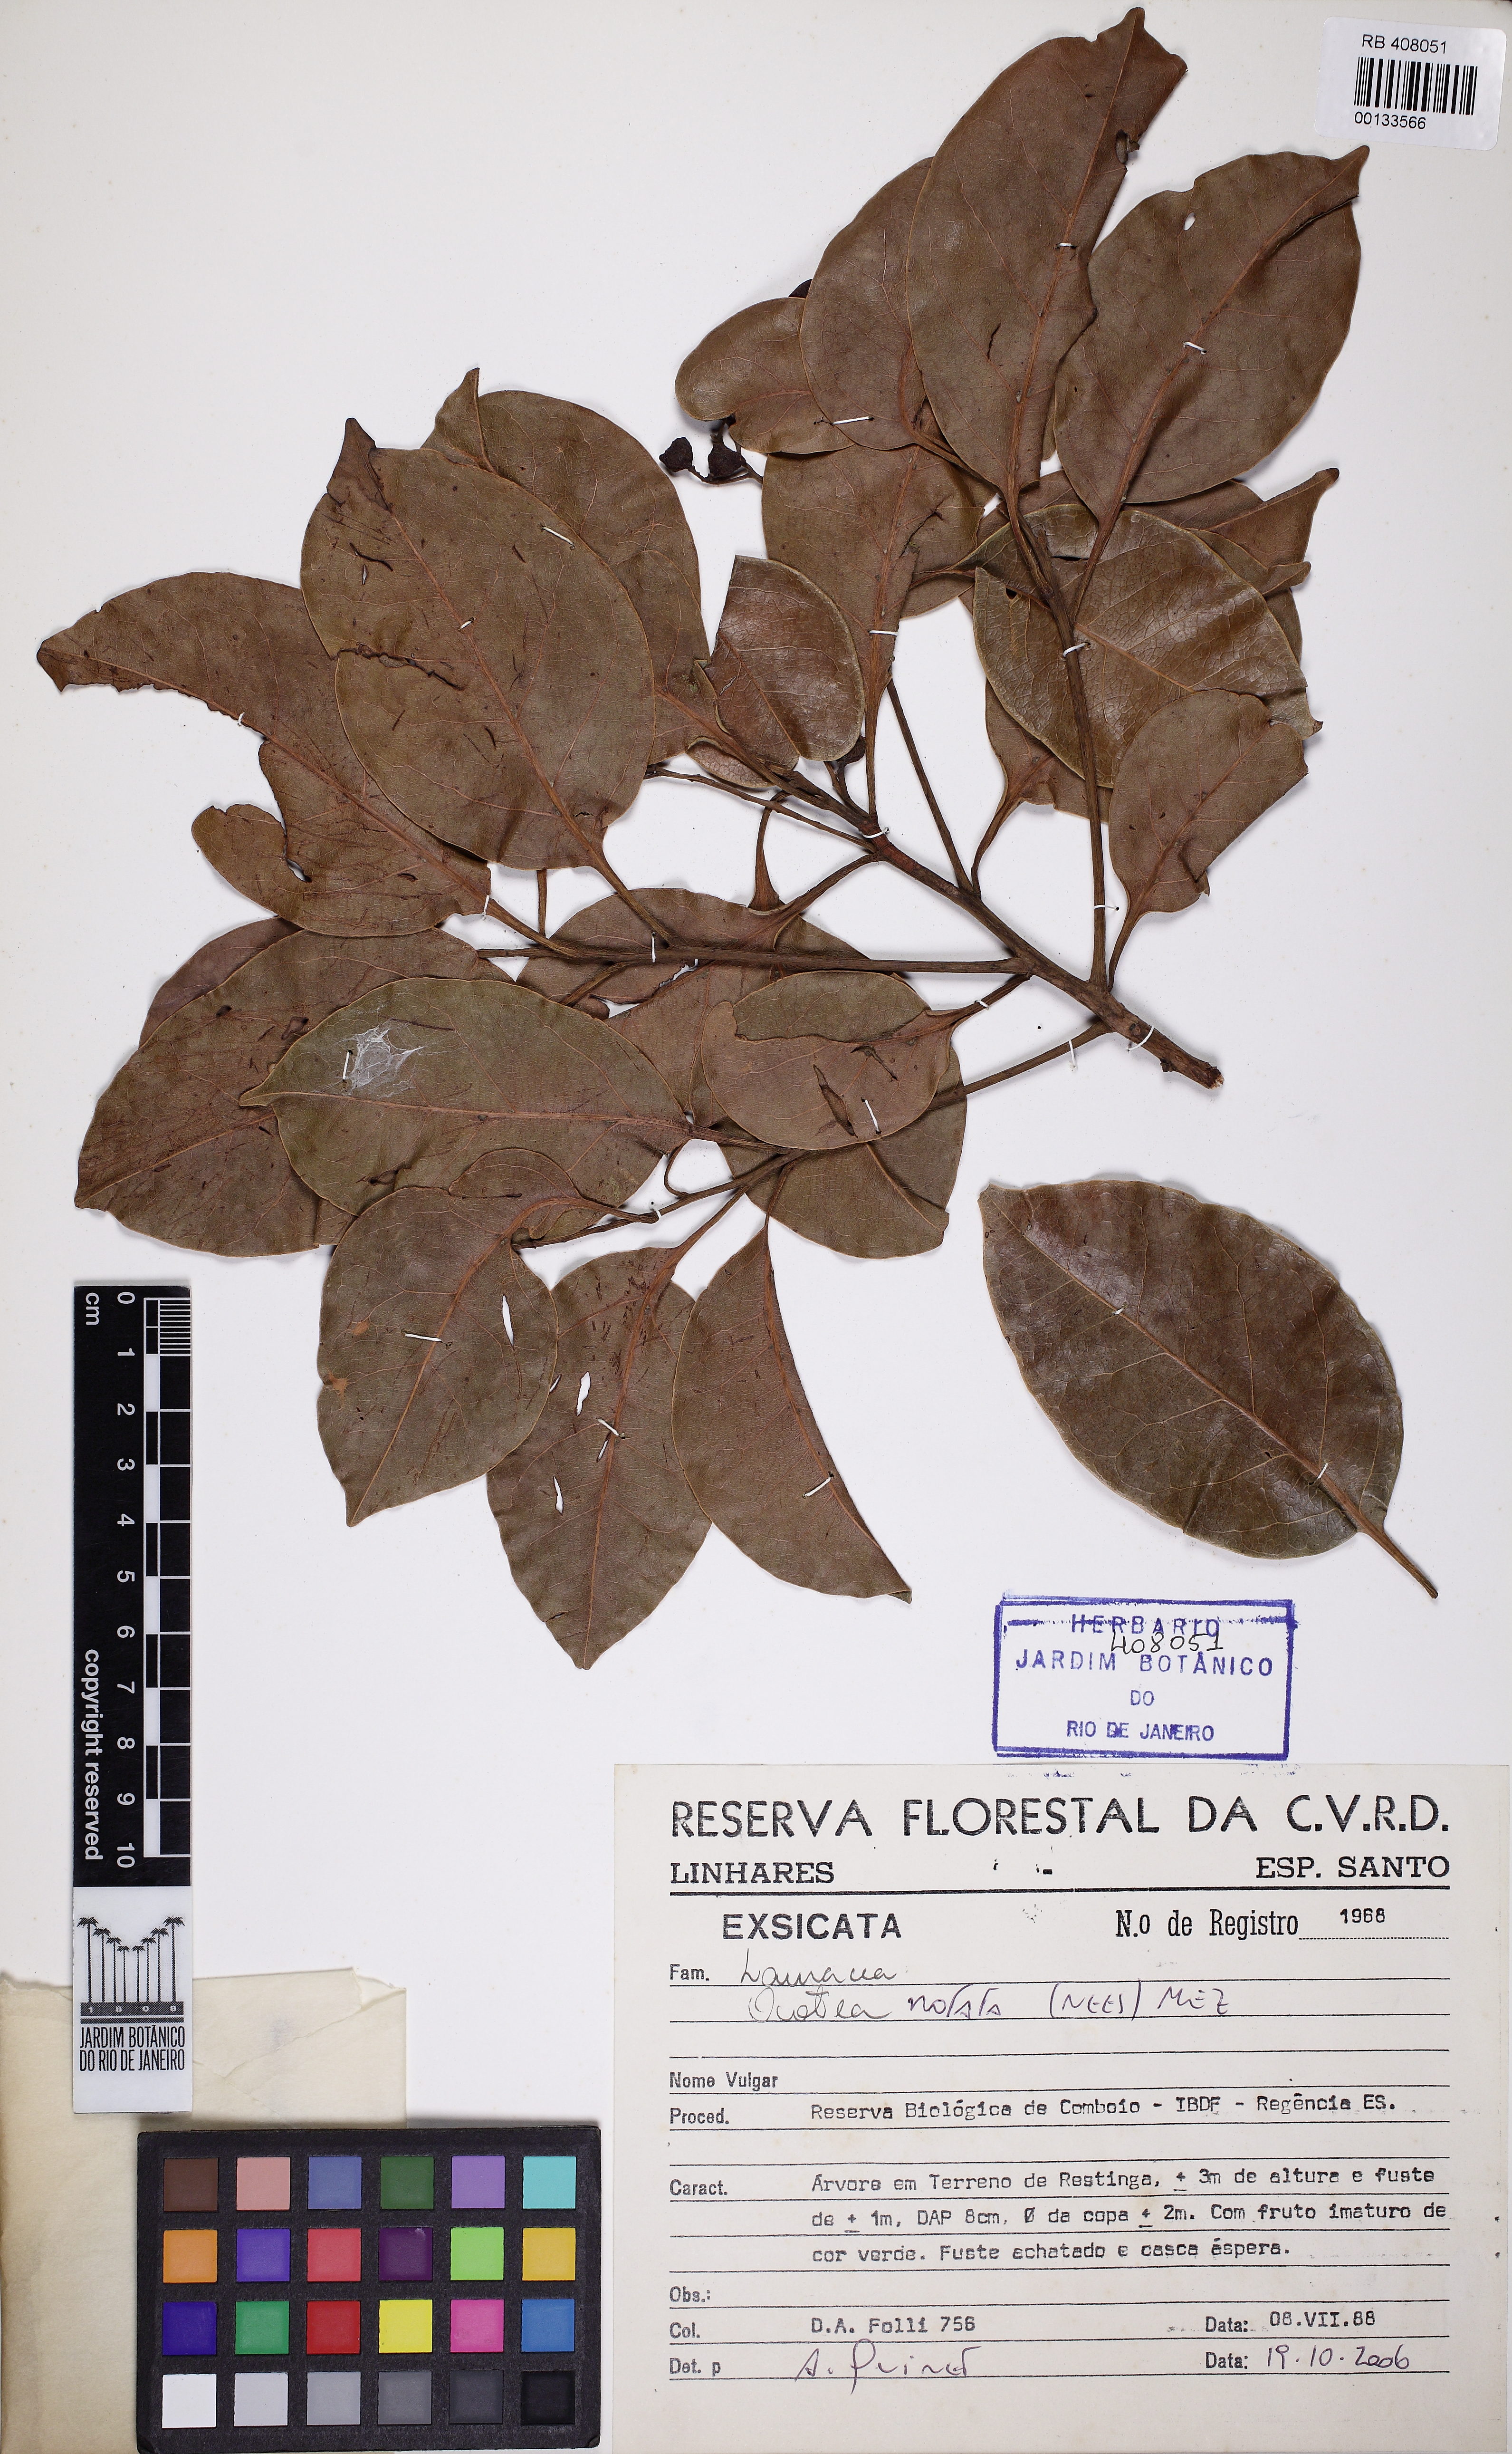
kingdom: Plantae
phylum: Tracheophyta
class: Magnoliopsida
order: Laurales
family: Lauraceae
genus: Mespilodaphne
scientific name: Mespilodaphne notata
